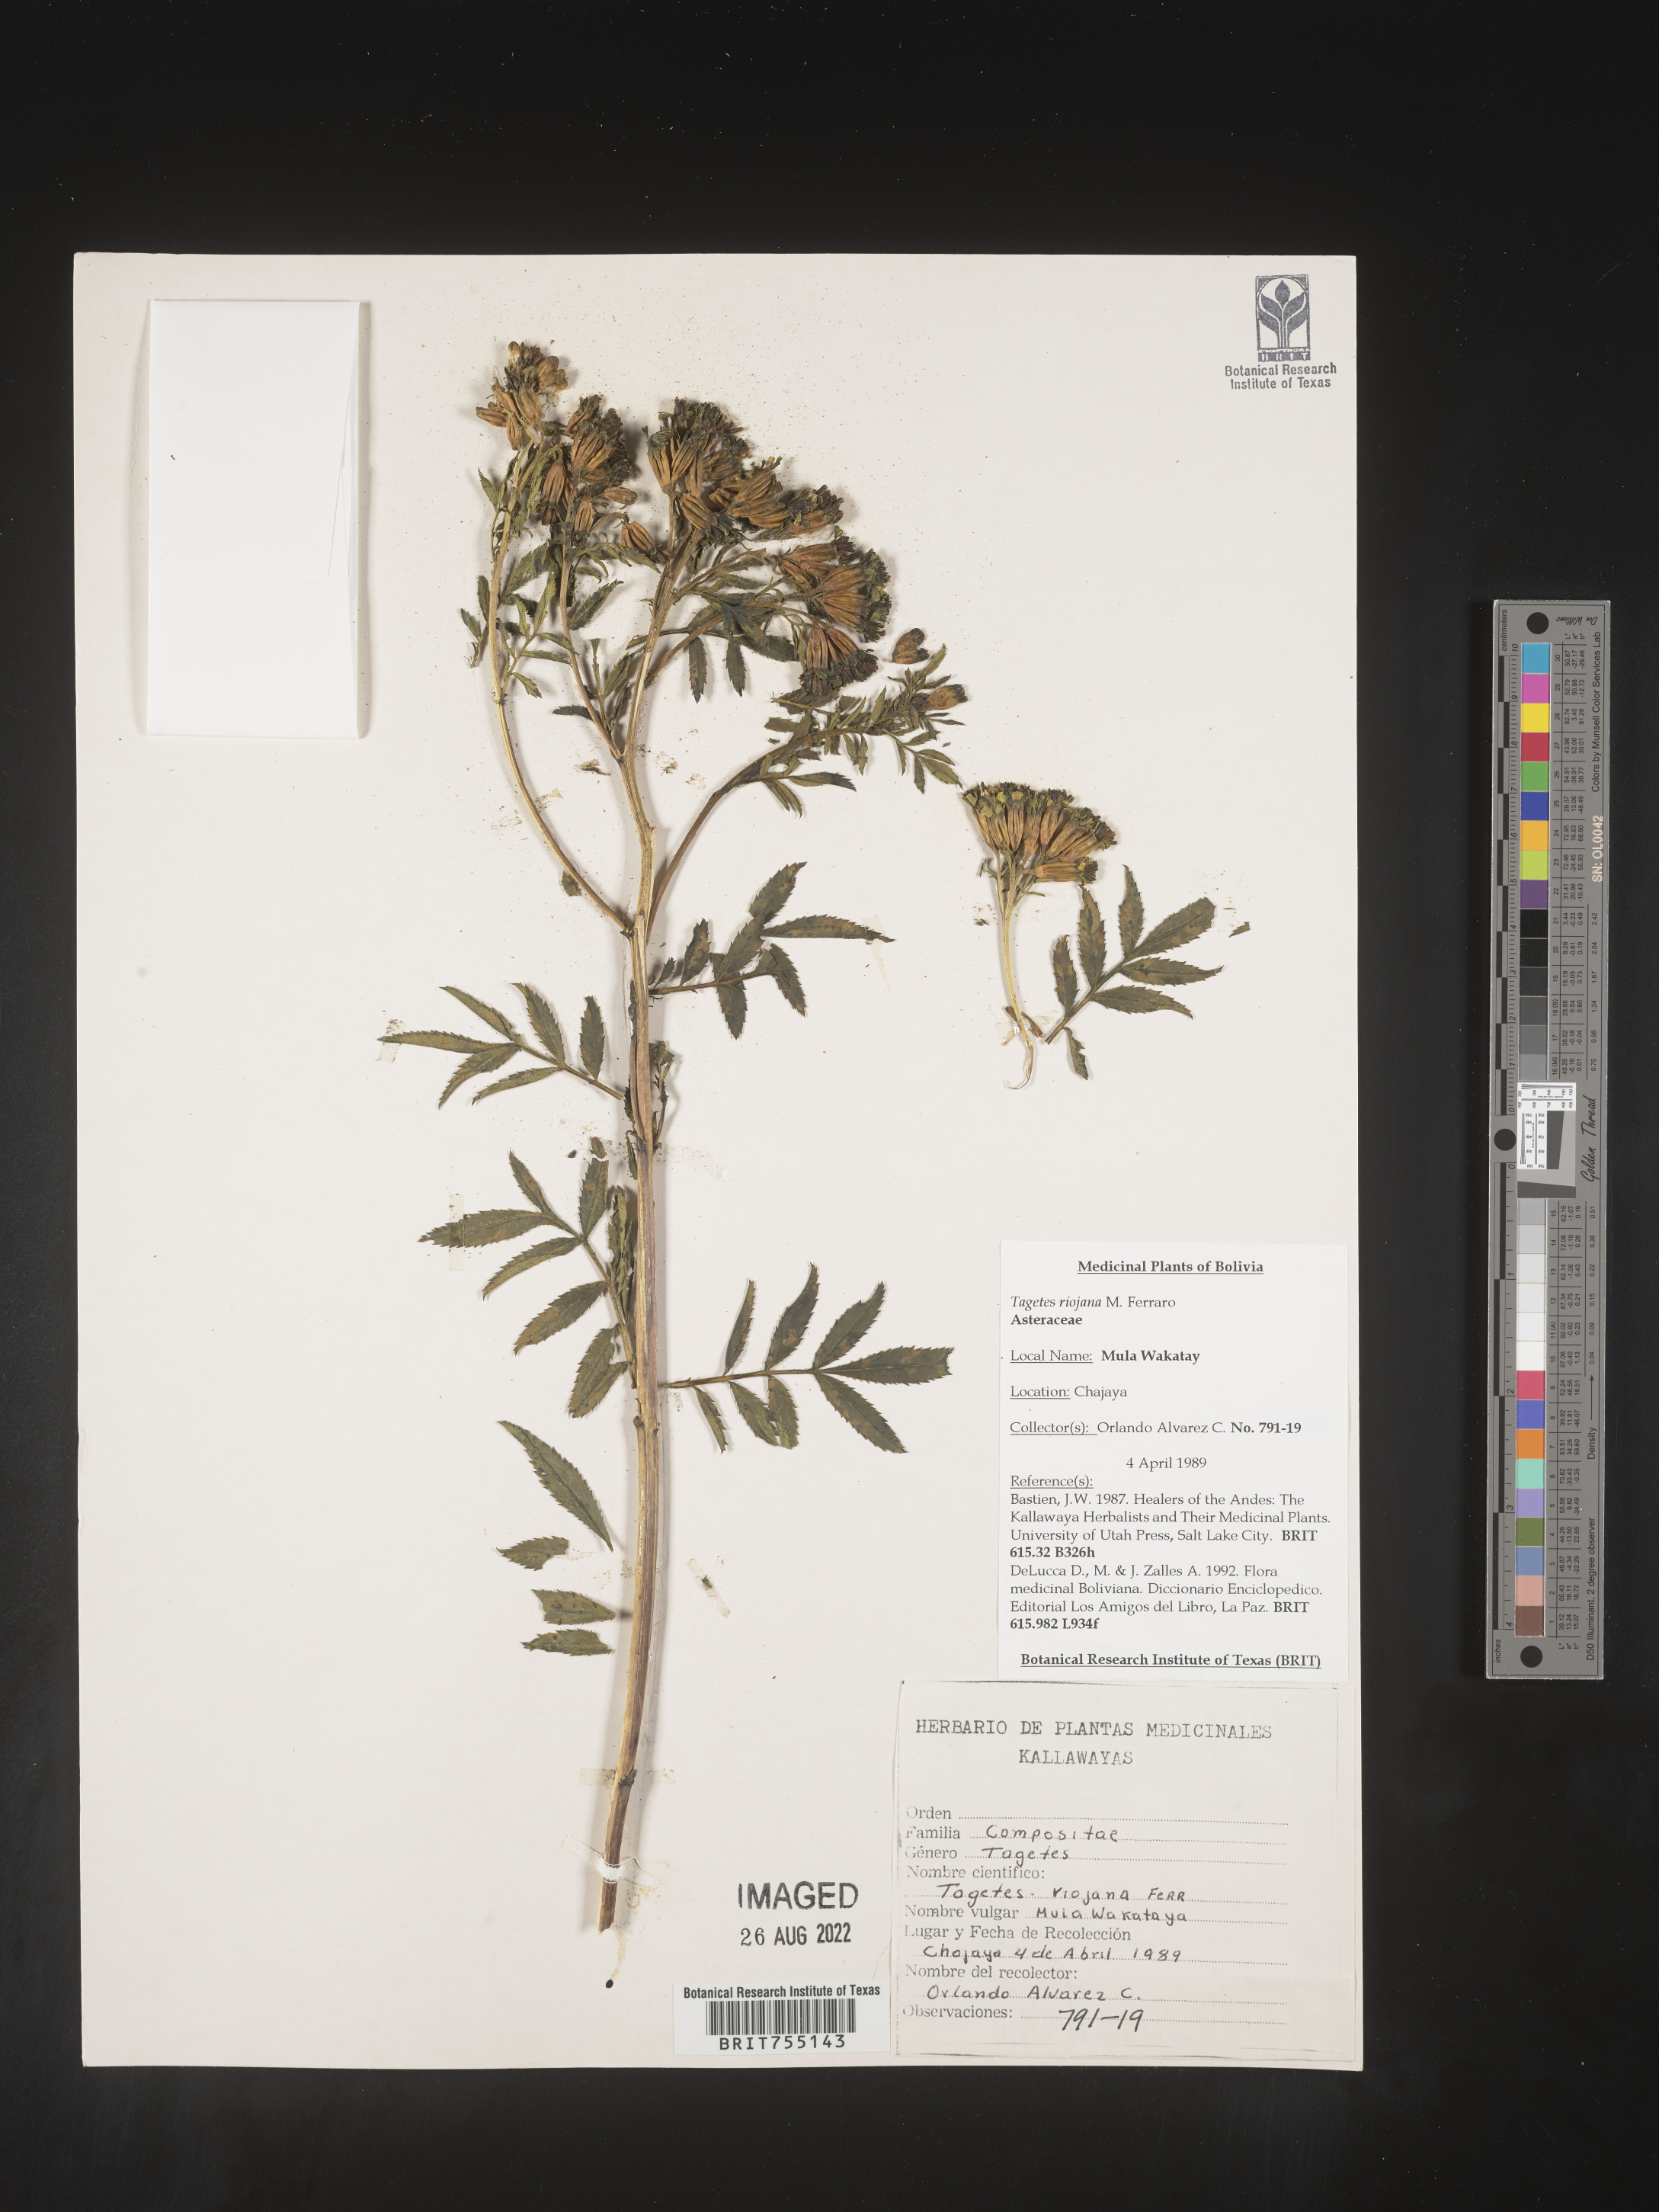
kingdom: Plantae
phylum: Tracheophyta
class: Magnoliopsida
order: Asterales
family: Asteraceae
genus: Tagetes
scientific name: Tagetes
